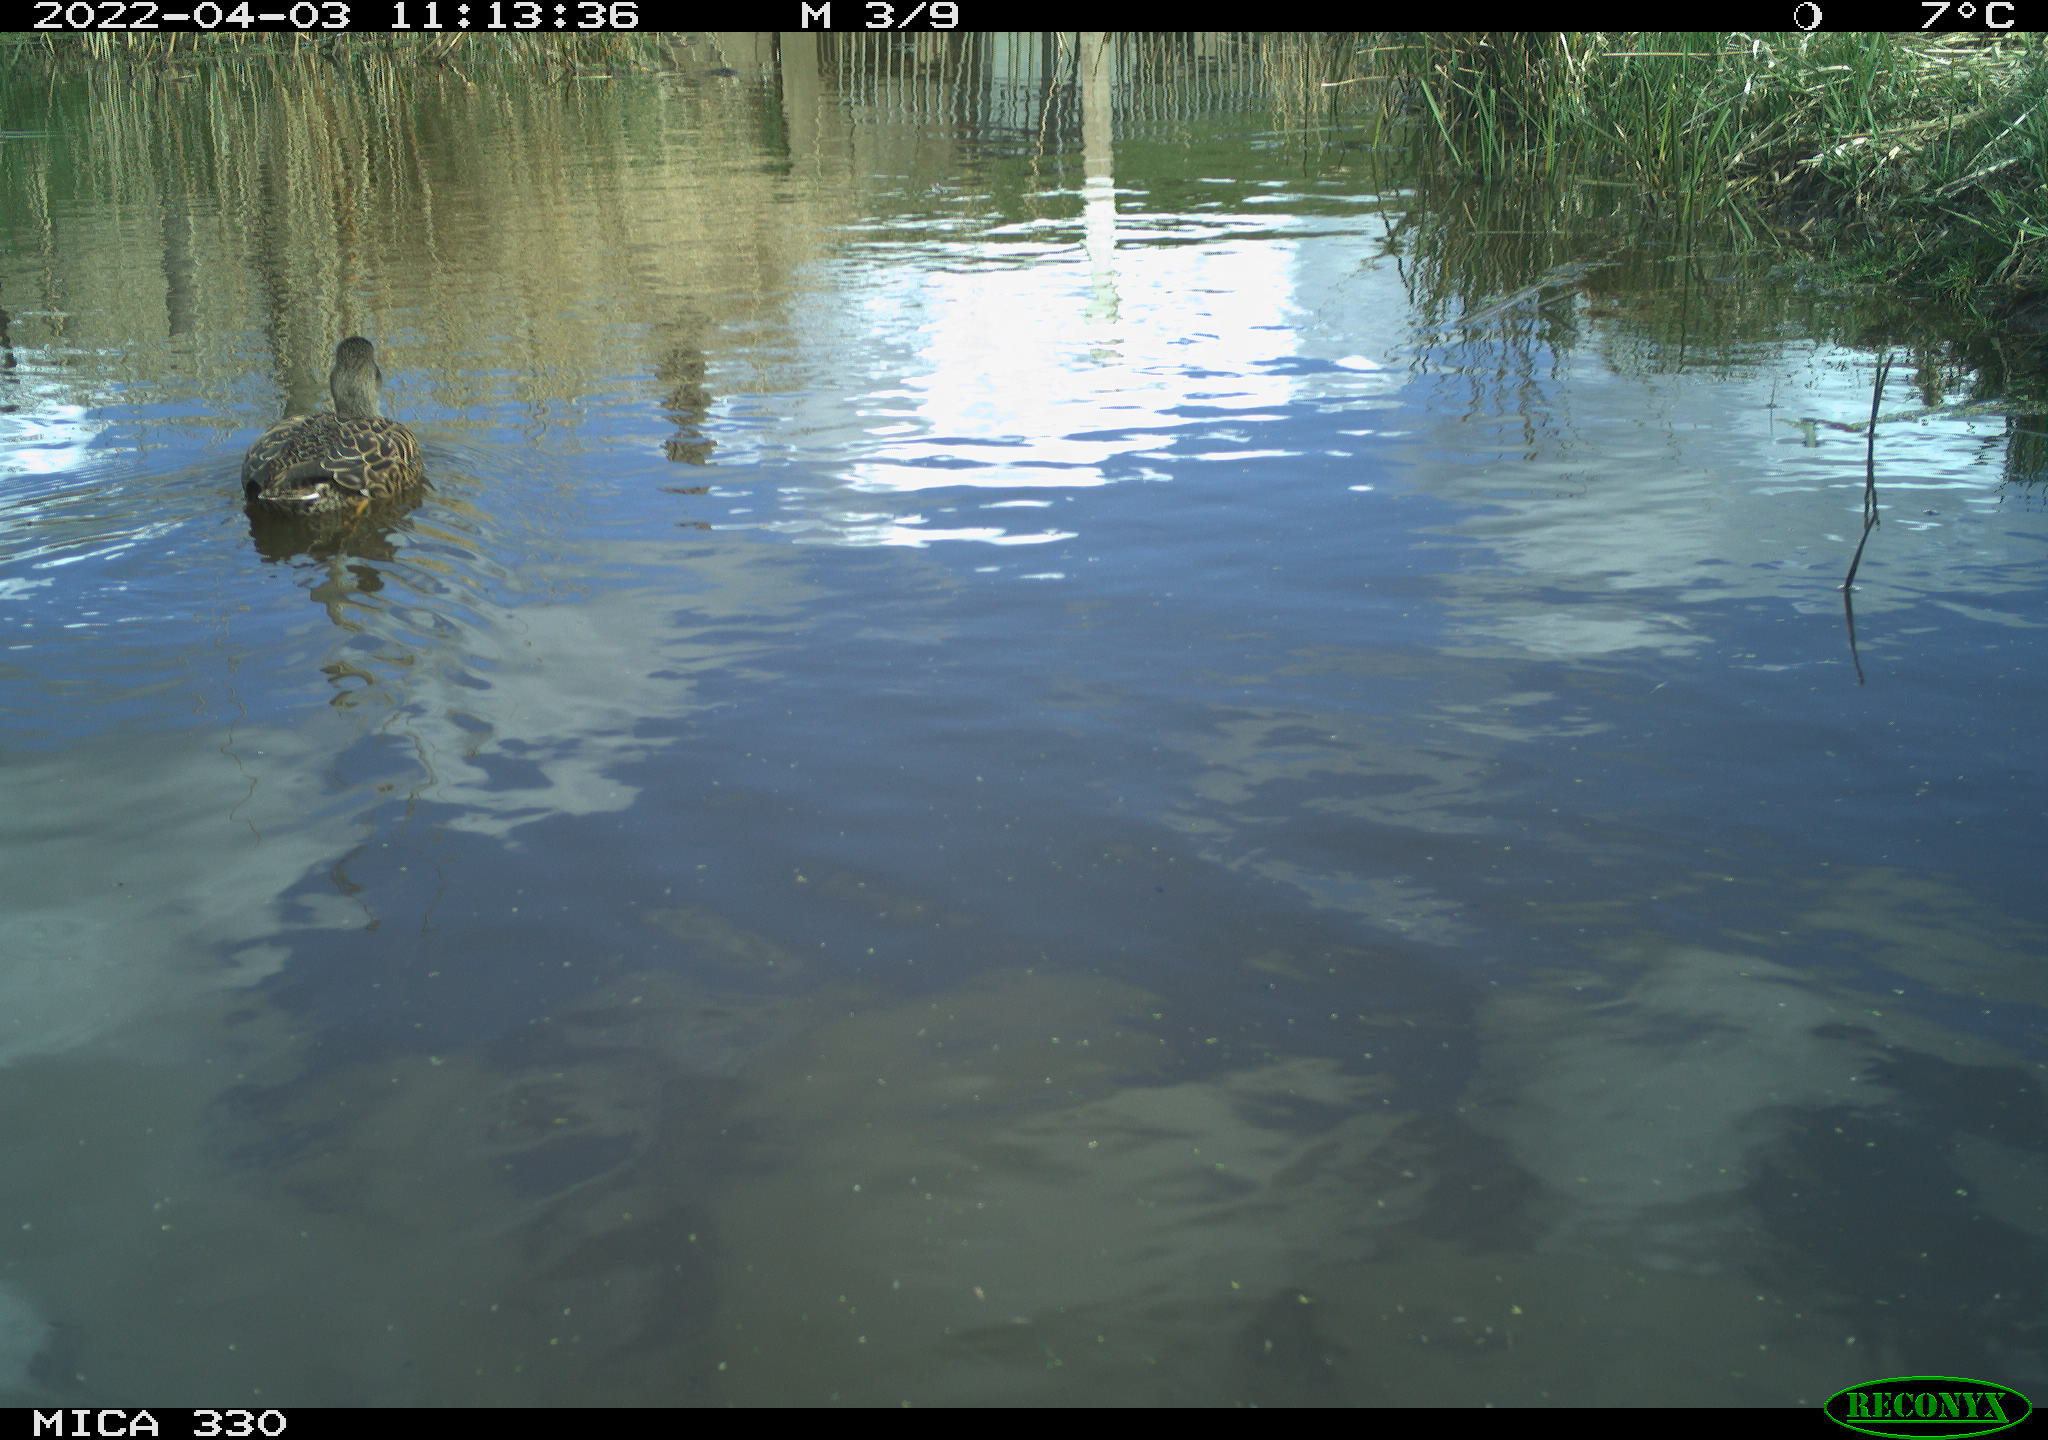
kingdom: Animalia
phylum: Chordata
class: Aves
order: Anseriformes
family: Anatidae
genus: Mareca
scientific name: Mareca strepera
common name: Gadwall
